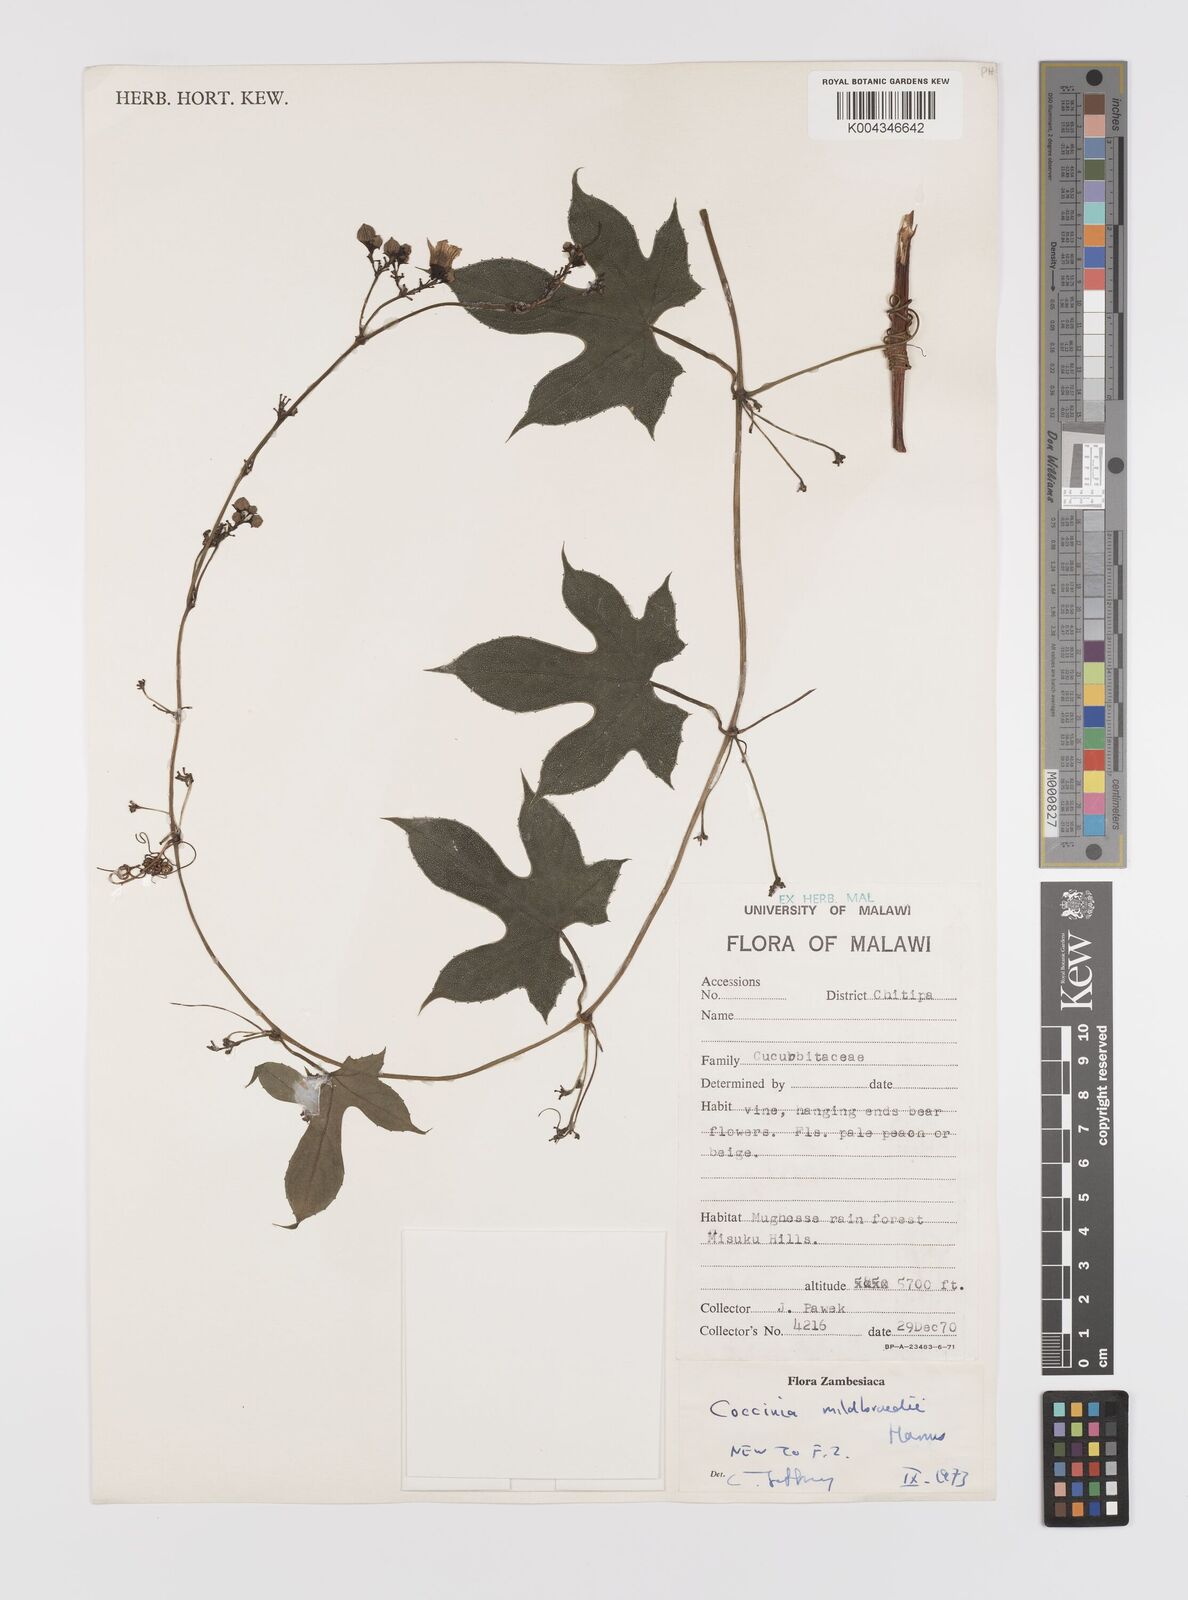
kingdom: Plantae
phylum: Tracheophyta
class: Magnoliopsida
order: Cucurbitales
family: Cucurbitaceae
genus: Coccinia
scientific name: Coccinia mildbraedii
